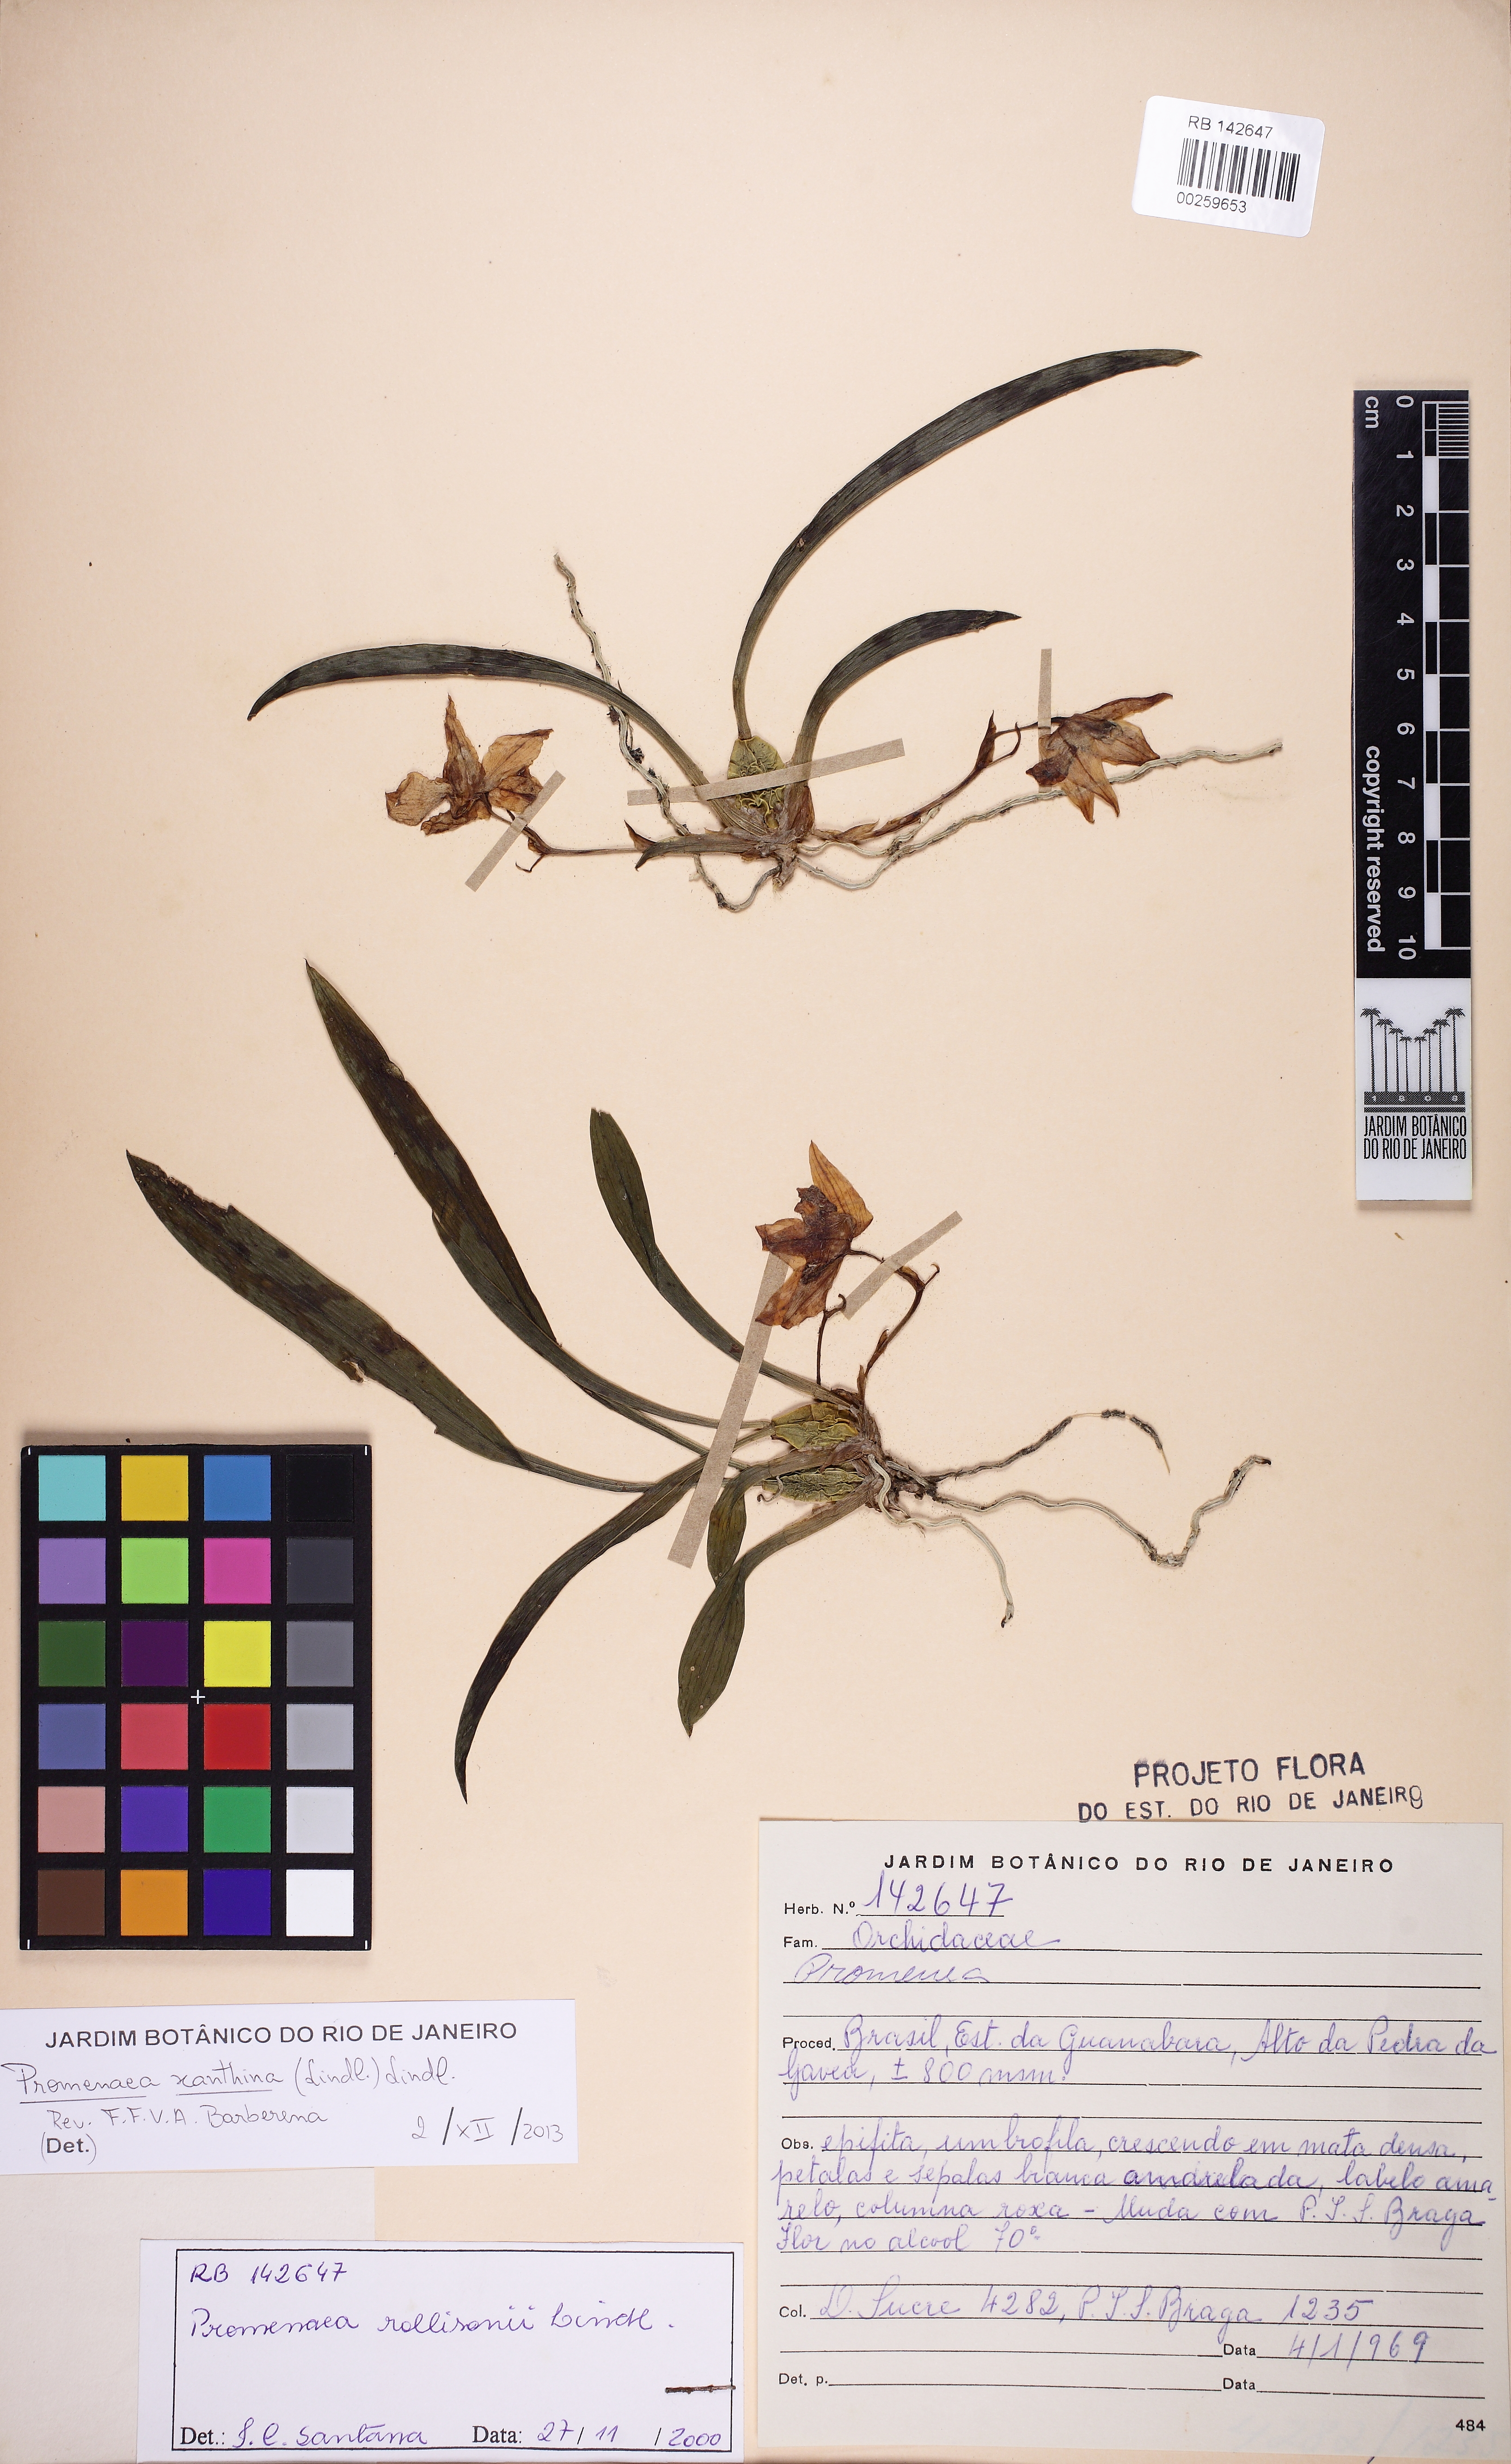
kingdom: Plantae
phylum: Tracheophyta
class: Liliopsida
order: Asparagales
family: Orchidaceae
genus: Promenaea
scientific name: Promenaea xanthina
